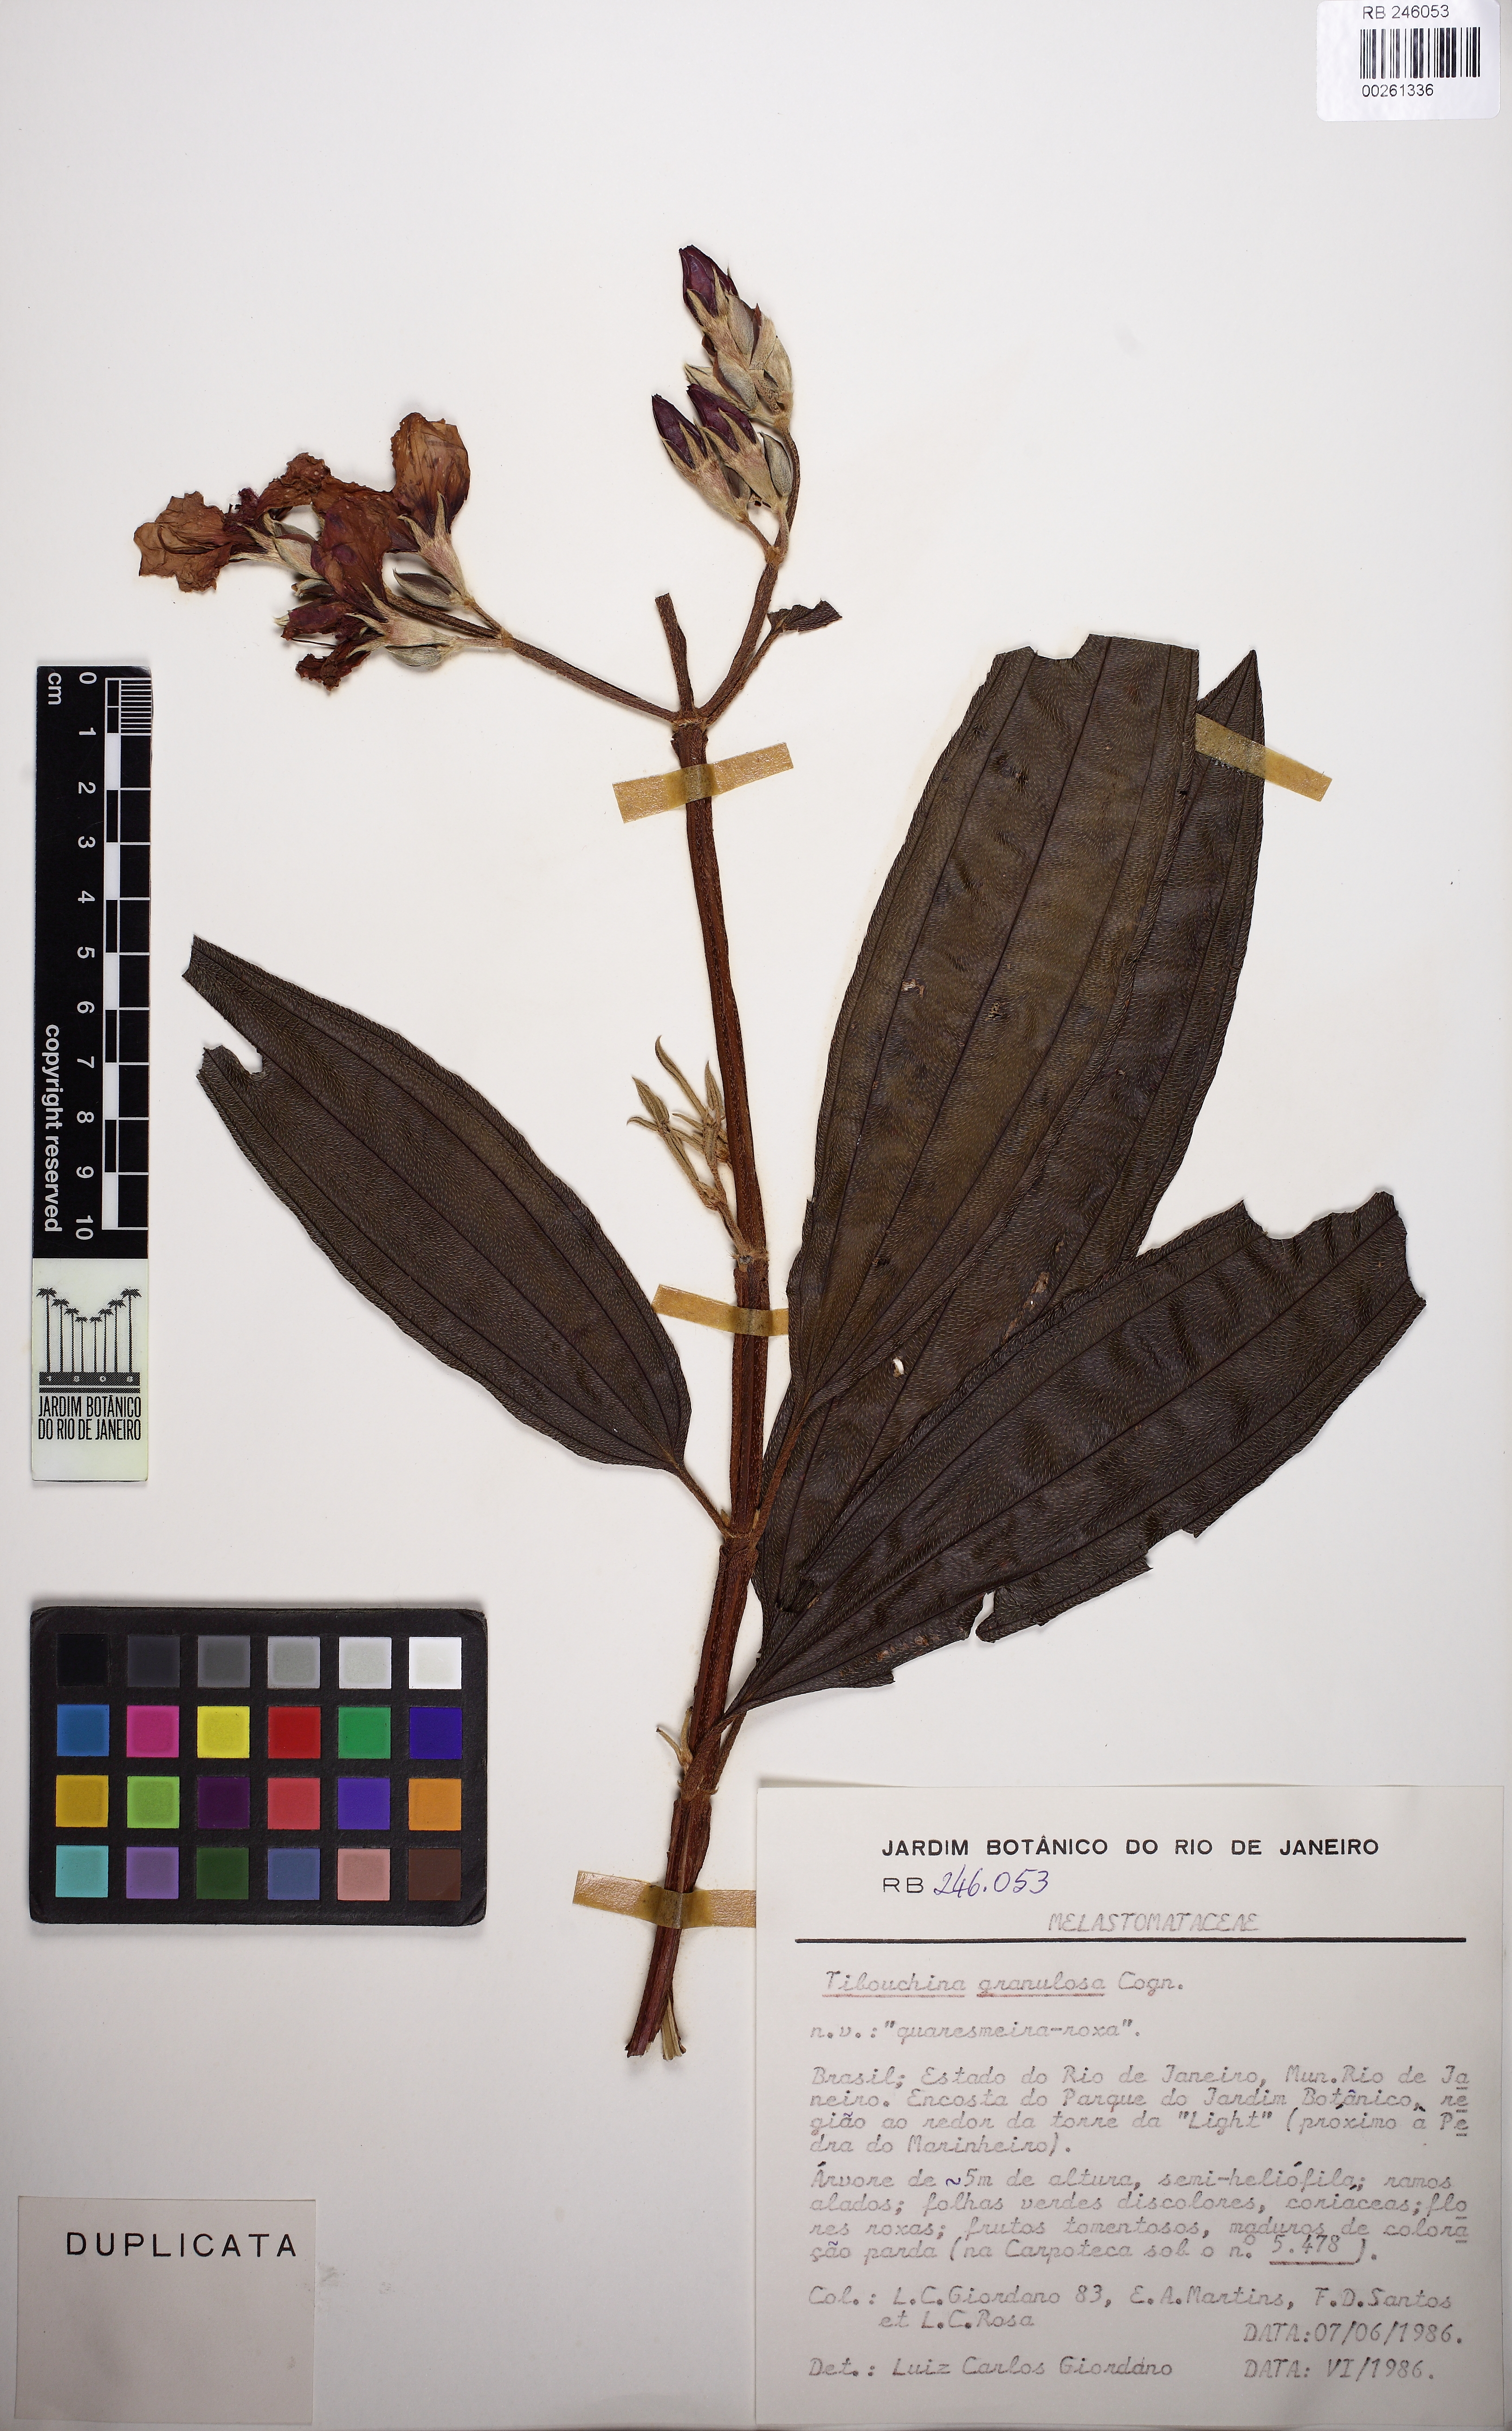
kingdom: Plantae
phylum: Tracheophyta
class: Magnoliopsida
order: Myrtales
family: Melastomataceae
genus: Pleroma
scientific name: Pleroma granulosum
